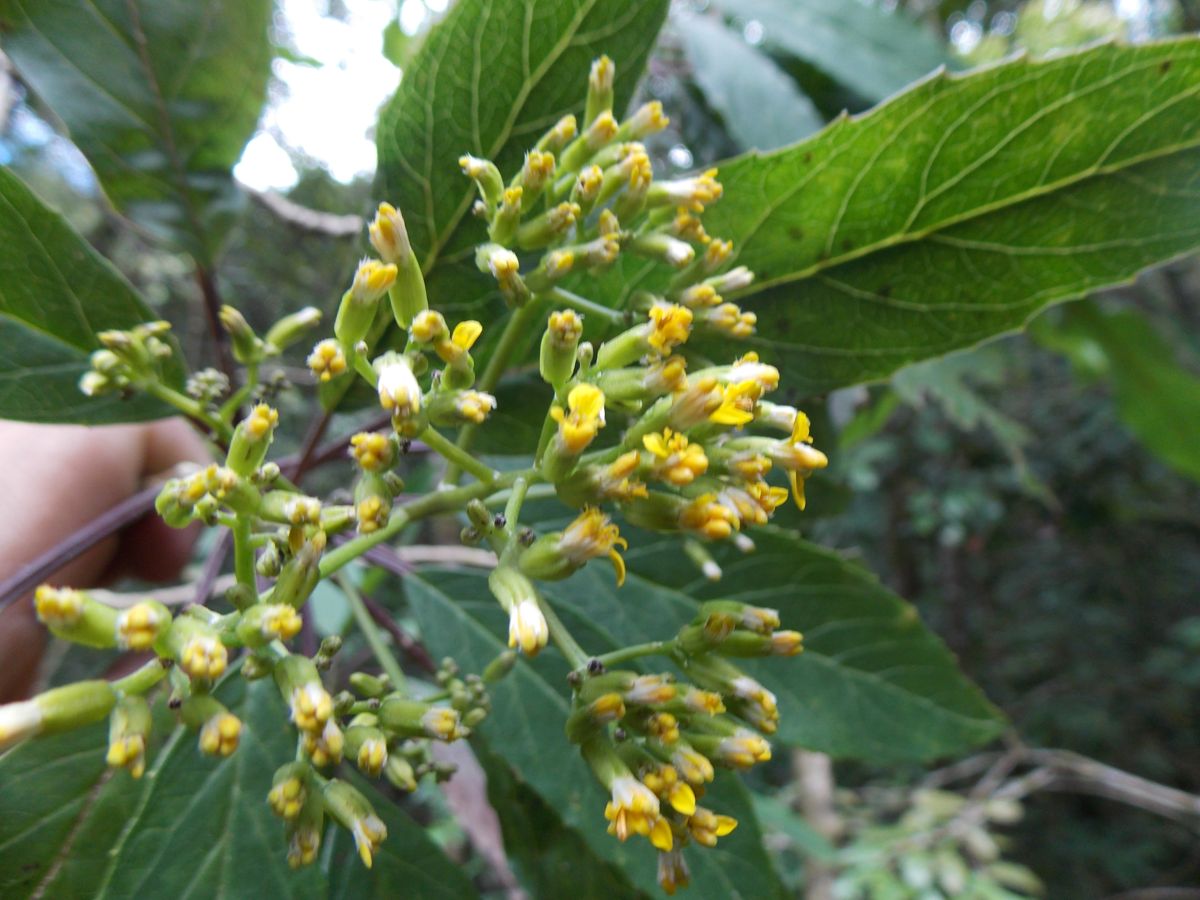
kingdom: Plantae
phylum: Tracheophyta
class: Magnoliopsida
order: Asterales
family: Asteraceae
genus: Roldana
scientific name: Roldana schaffneri
